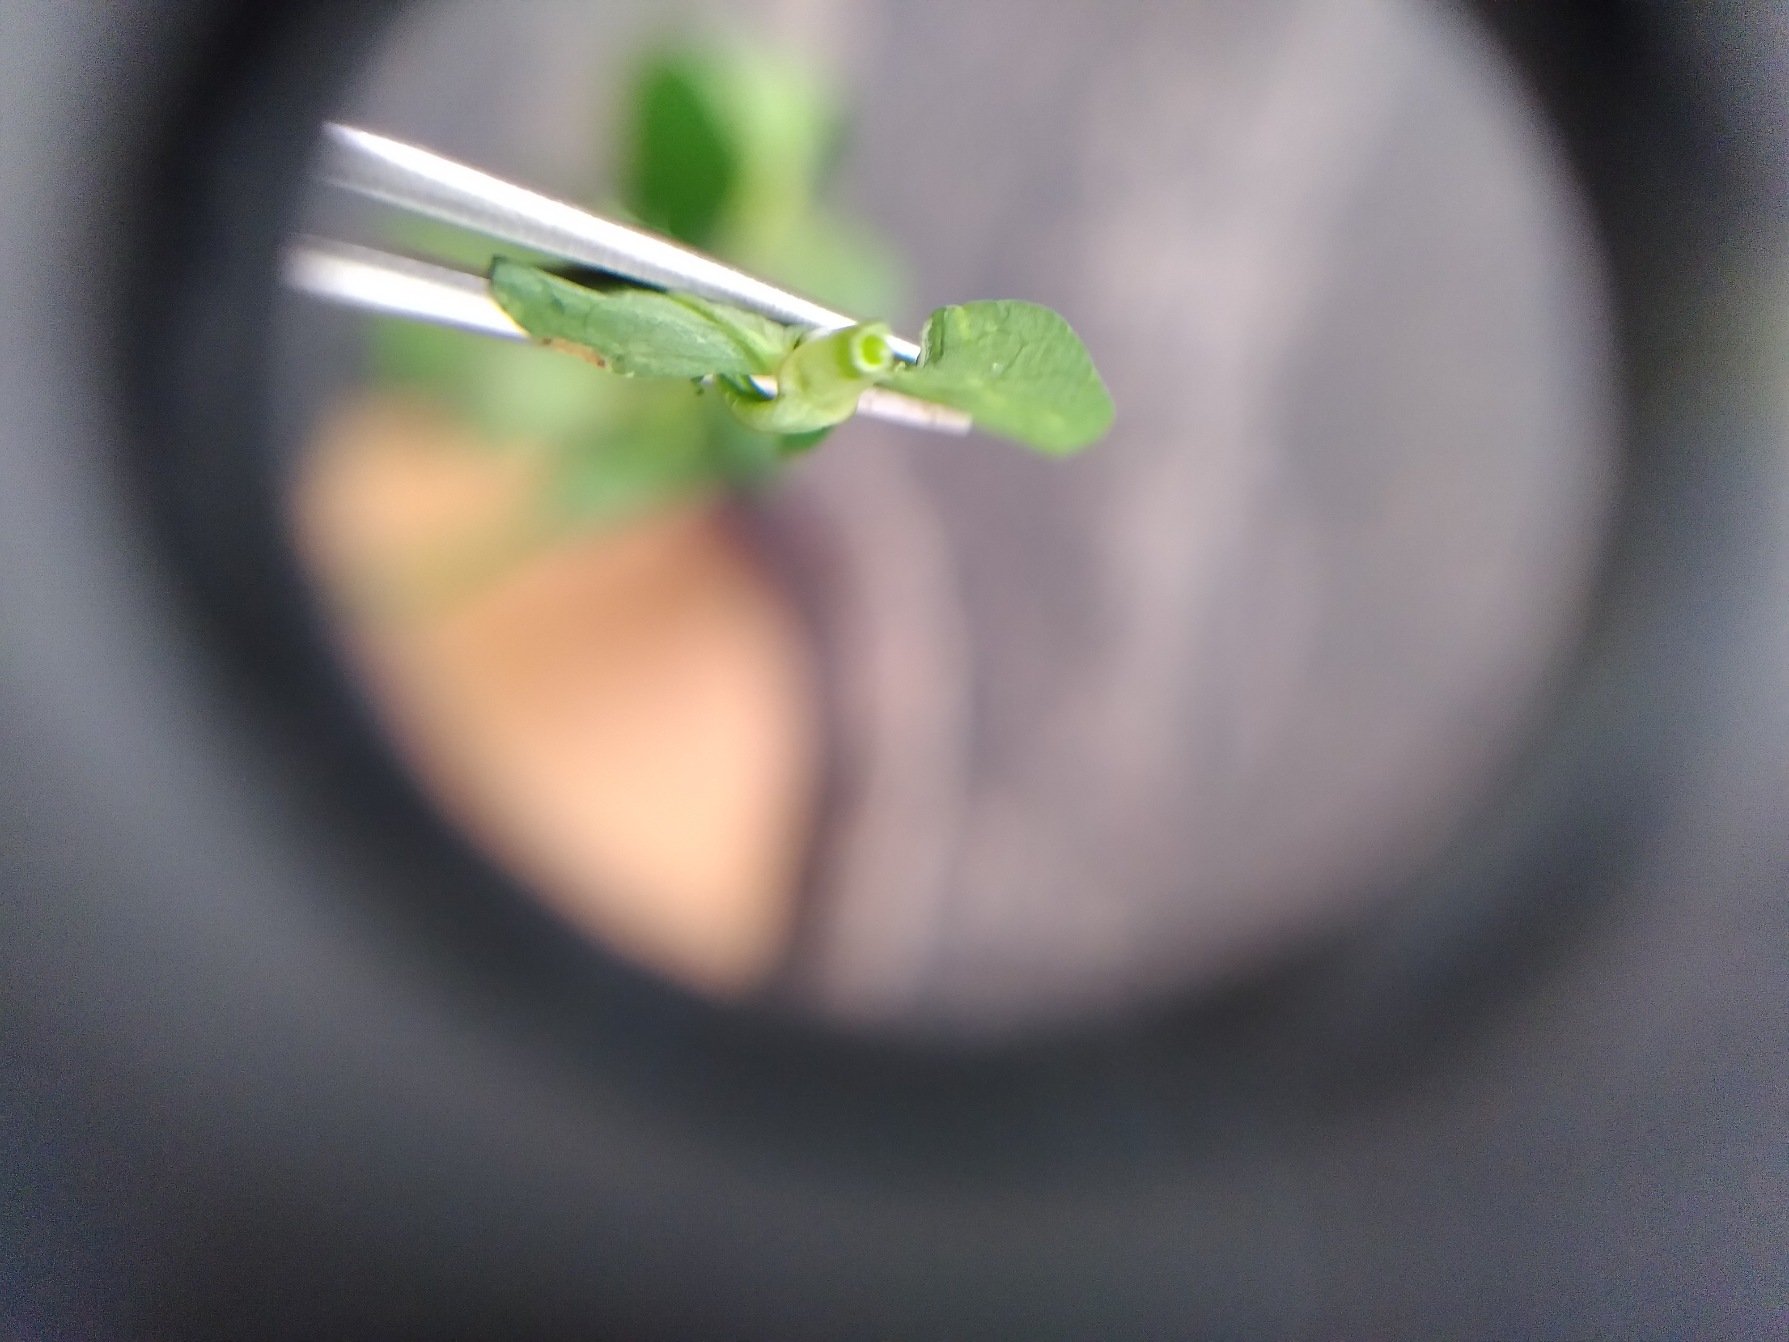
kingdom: Plantae
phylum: Tracheophyta
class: Magnoliopsida
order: Fabales
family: Fabaceae
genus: Lotus
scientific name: Lotus pedunculatus
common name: Sump-kællingetand
